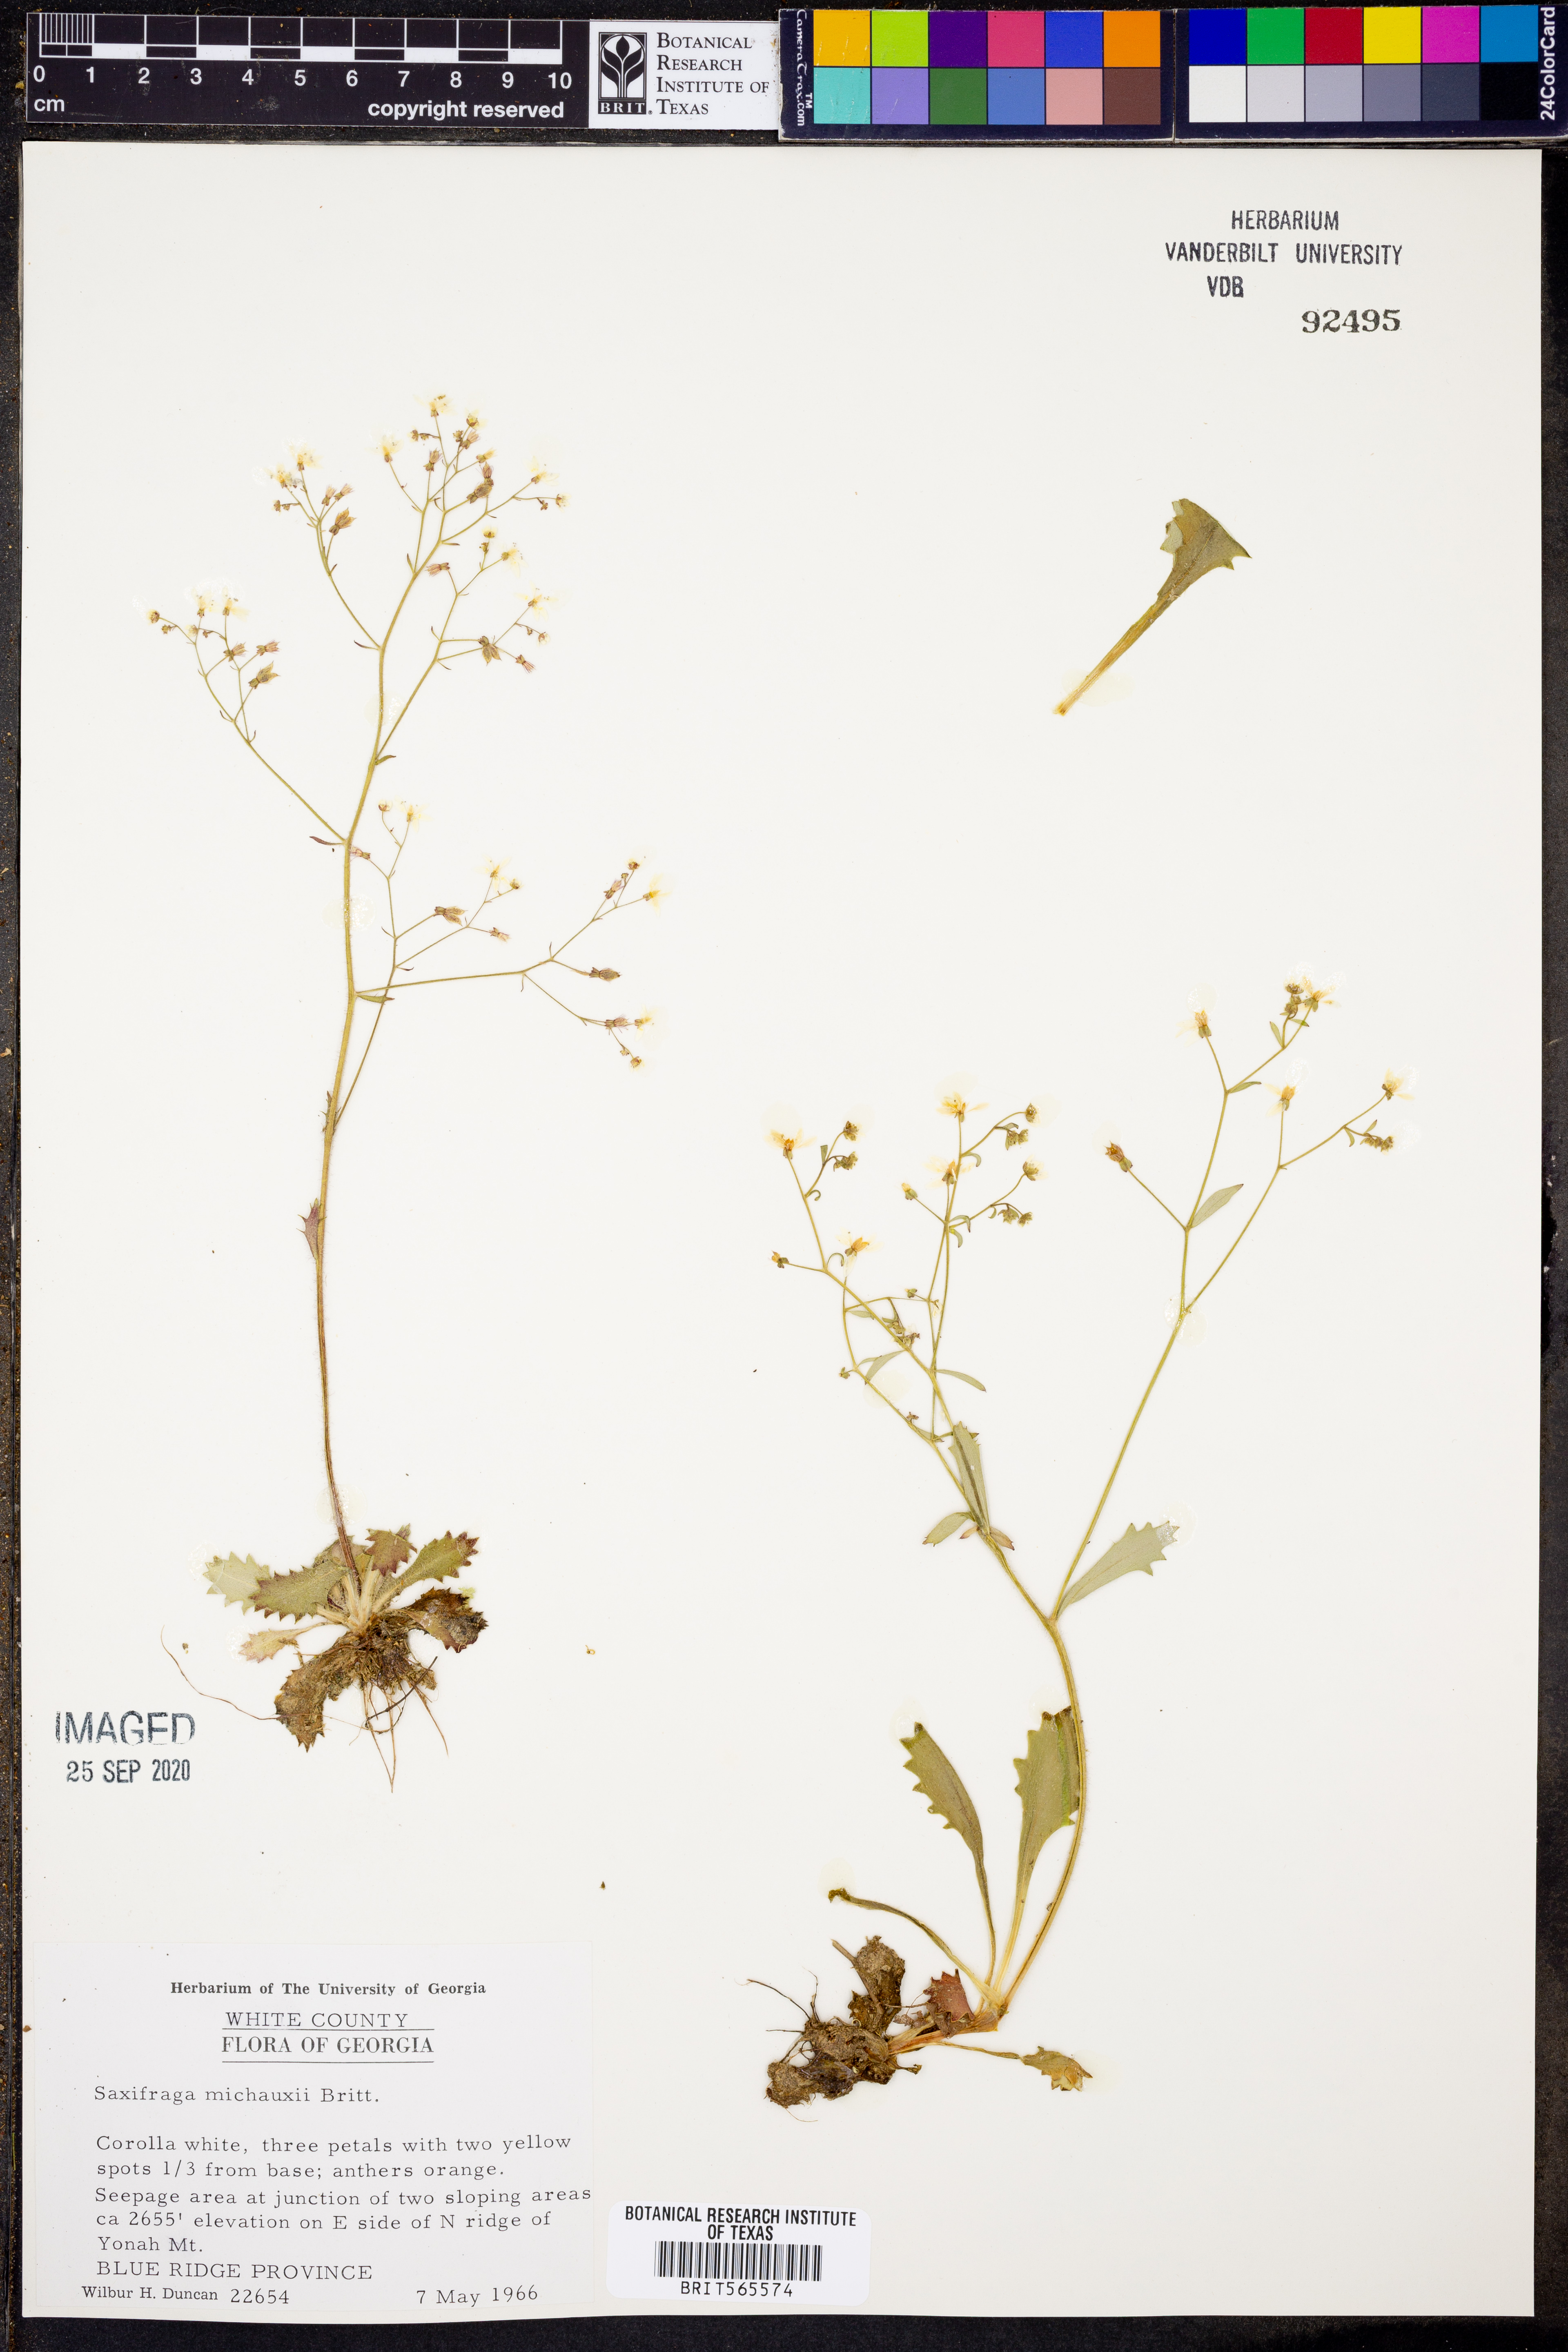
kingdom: Plantae
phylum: Tracheophyta
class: Magnoliopsida
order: Saxifragales
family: Saxifragaceae
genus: Micranthes
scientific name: Micranthes petiolaris
